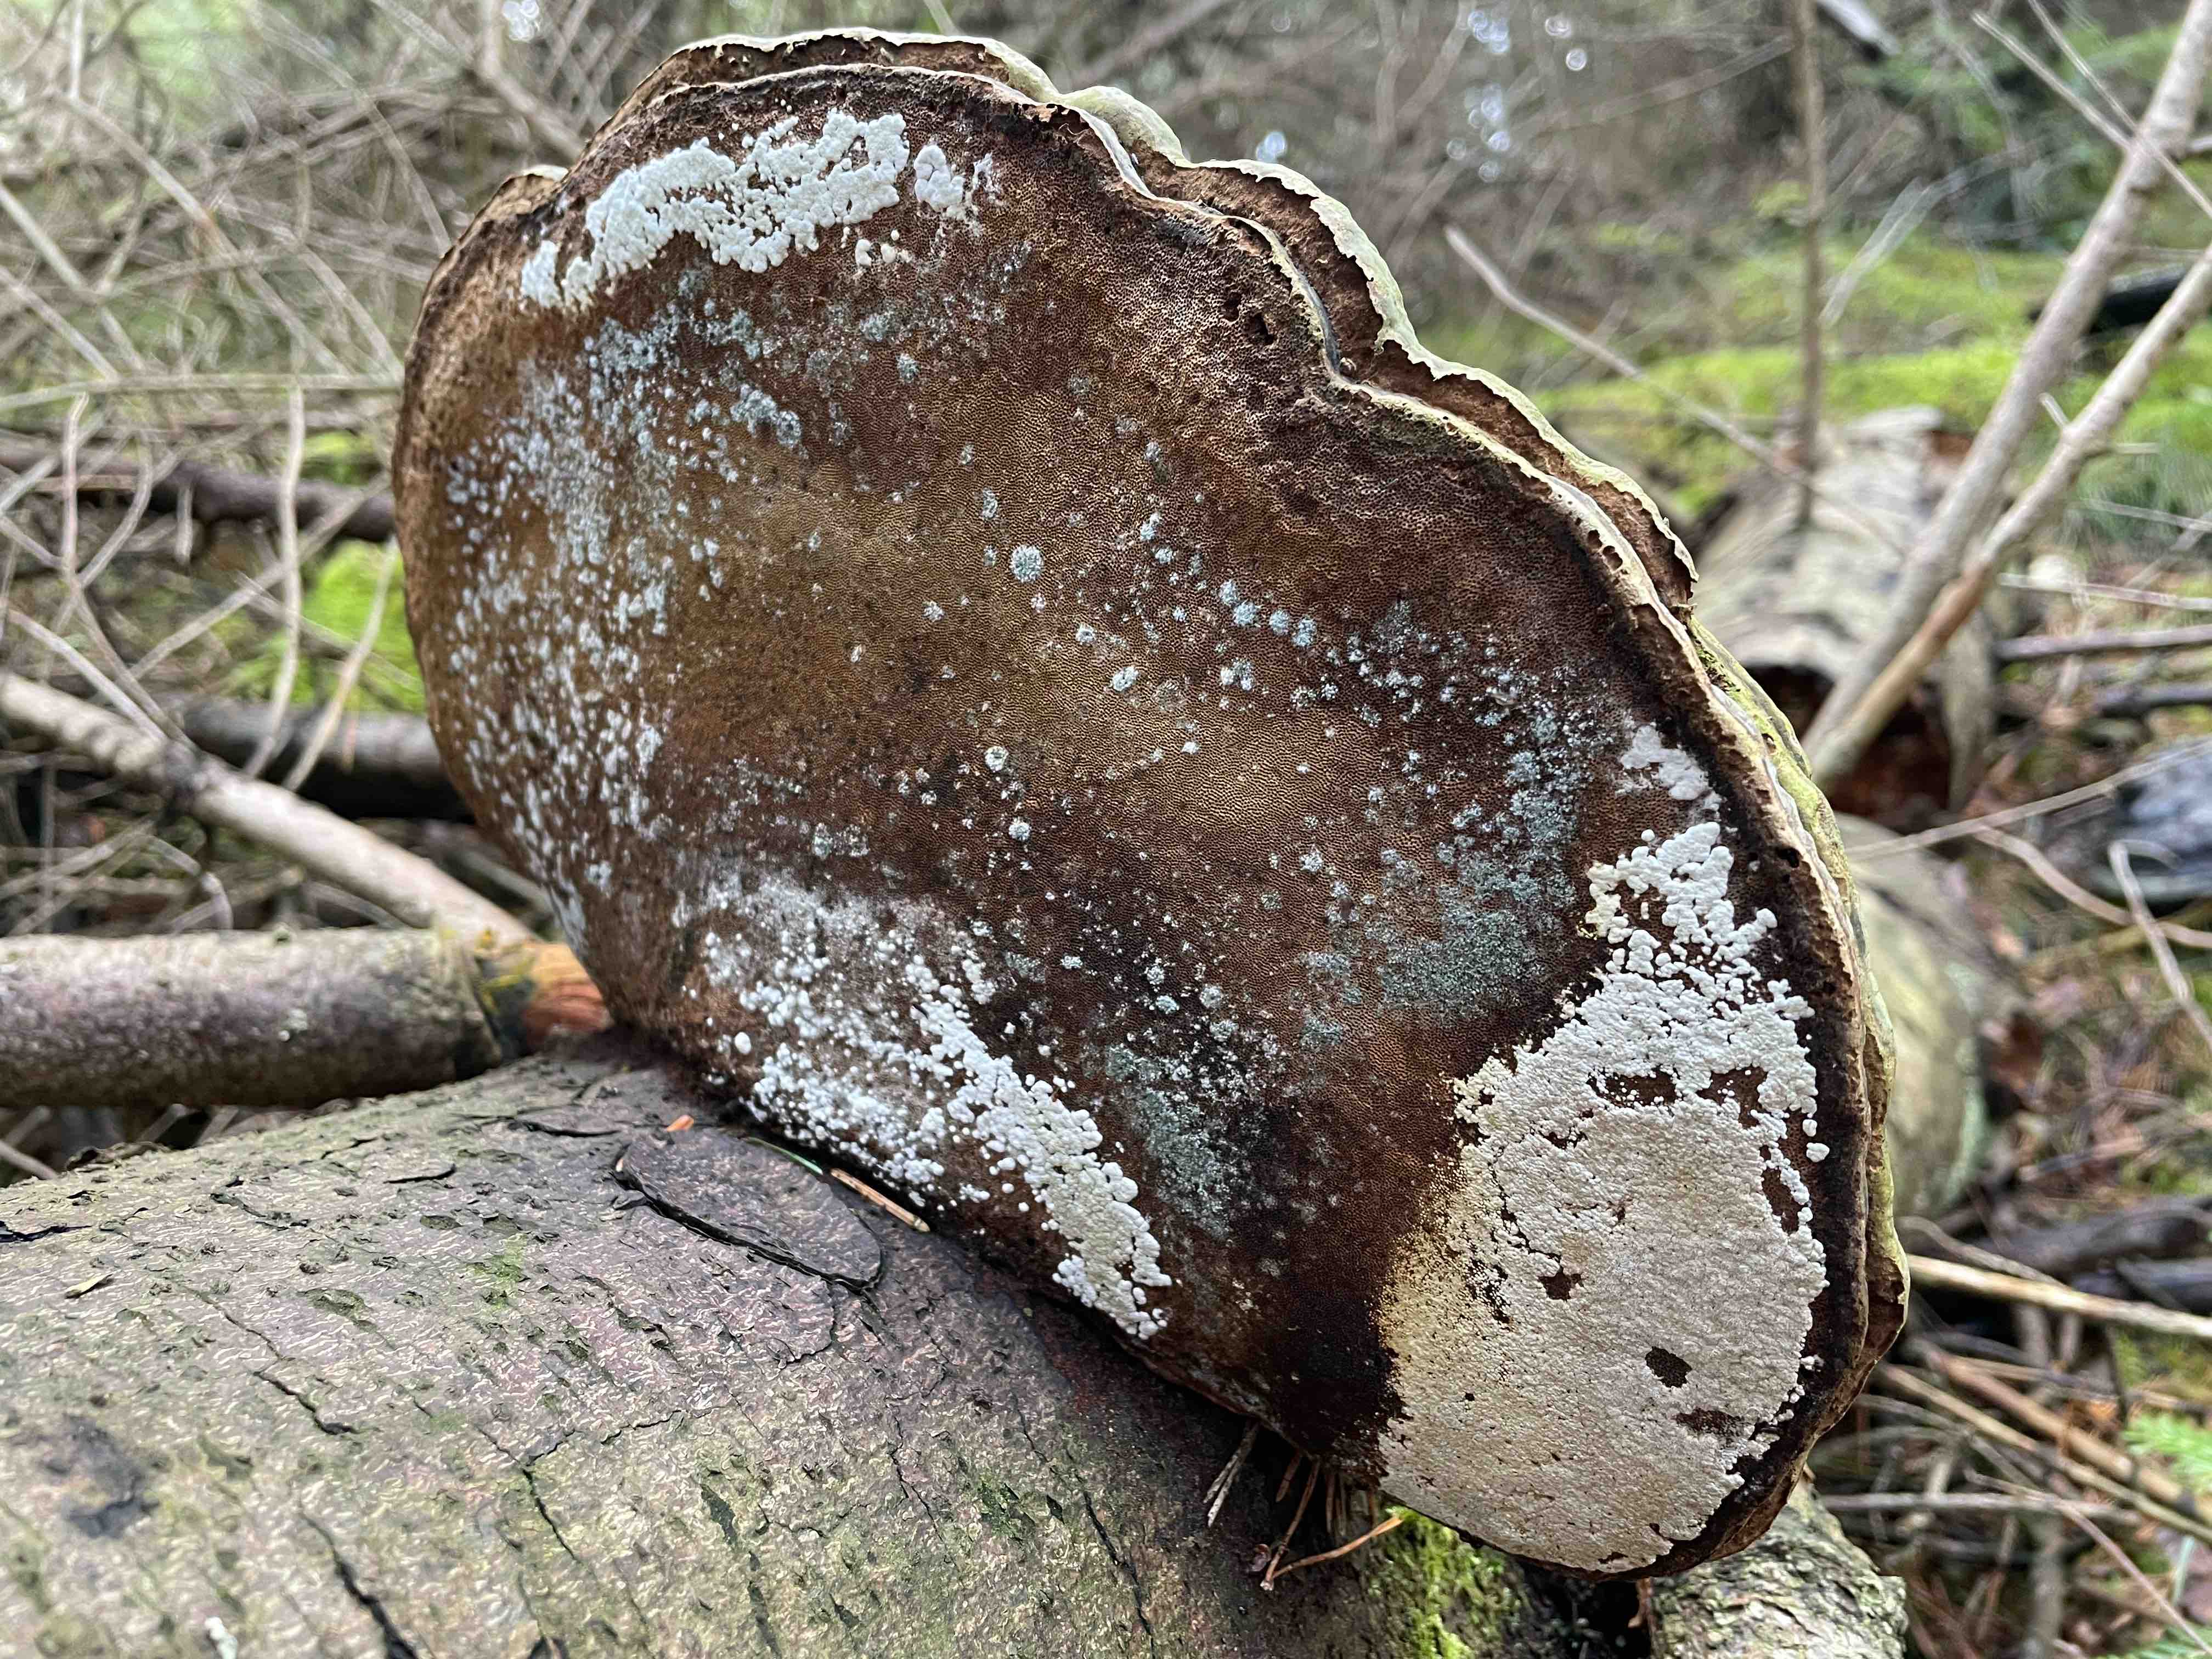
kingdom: Fungi
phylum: Ascomycota
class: Sordariomycetes
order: Hypocreales
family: Hypocreaceae
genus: Trichoderma
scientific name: Trichoderma protopulvinatum
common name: hovpore-kødkerne
